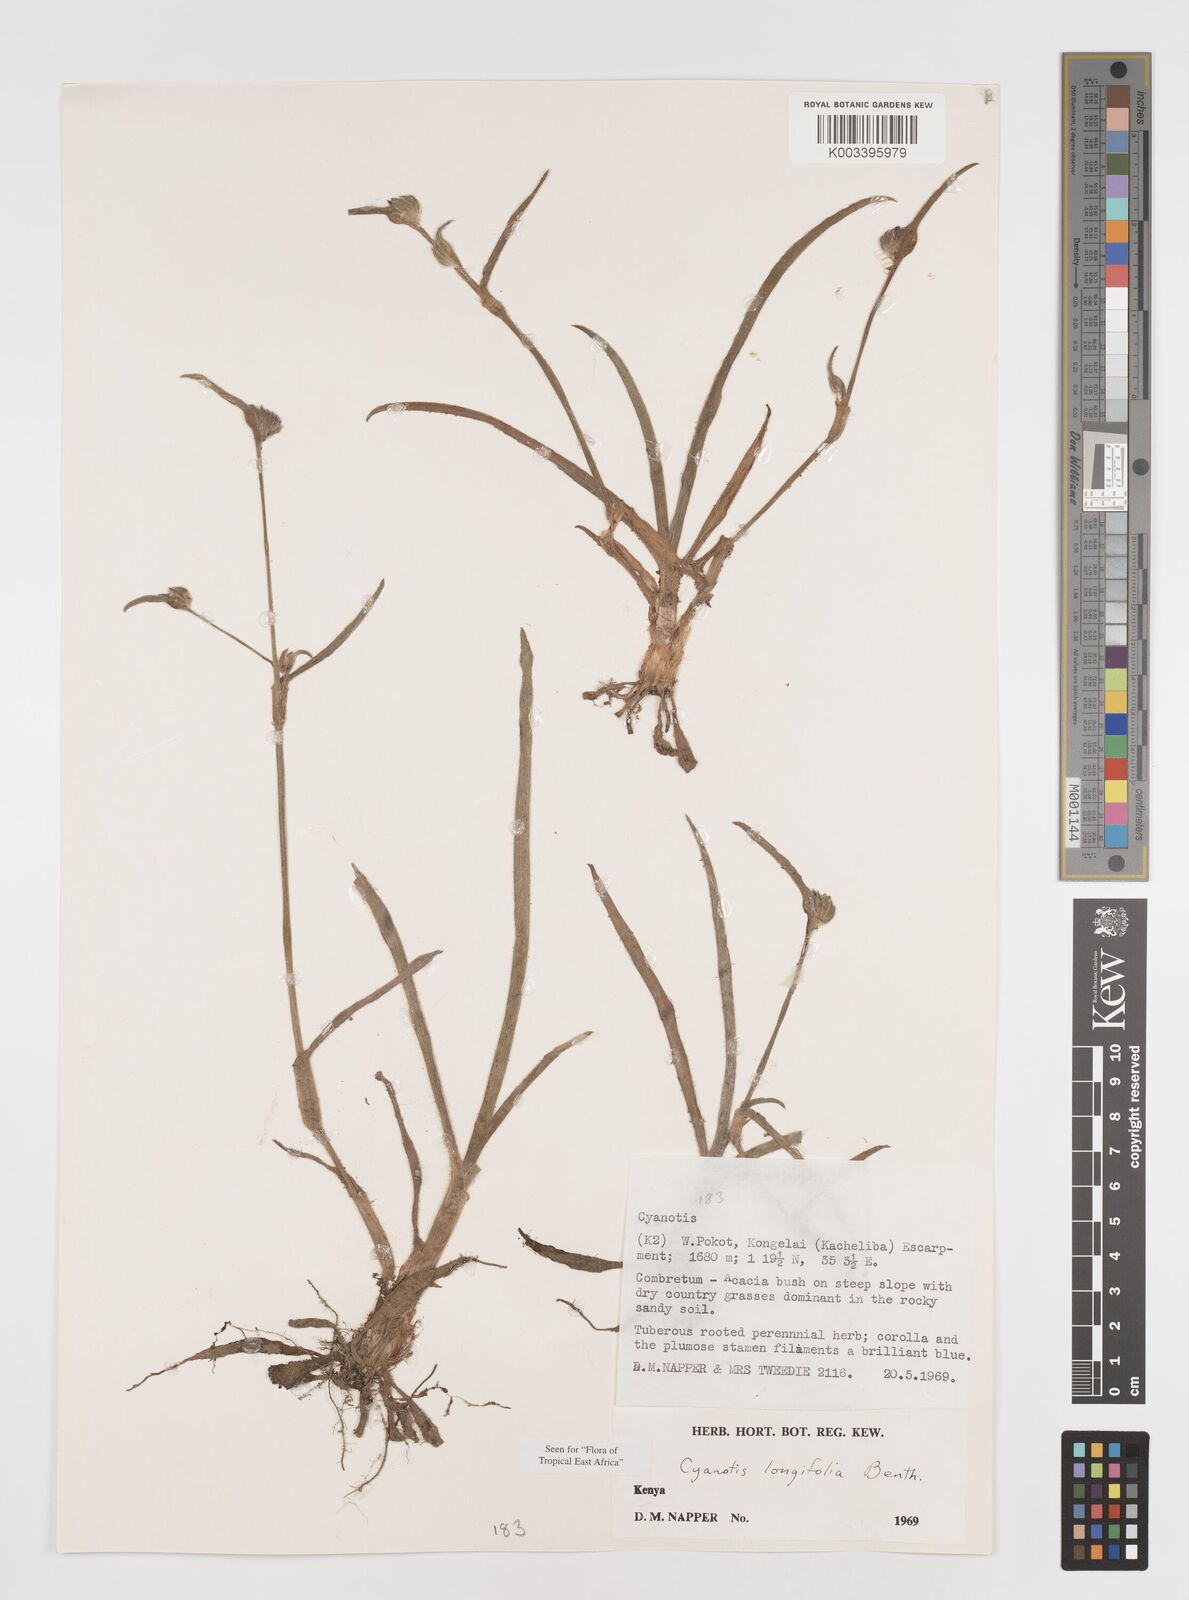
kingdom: Plantae
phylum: Tracheophyta
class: Liliopsida
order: Commelinales
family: Commelinaceae
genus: Cyanotis
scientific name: Cyanotis longifolia
